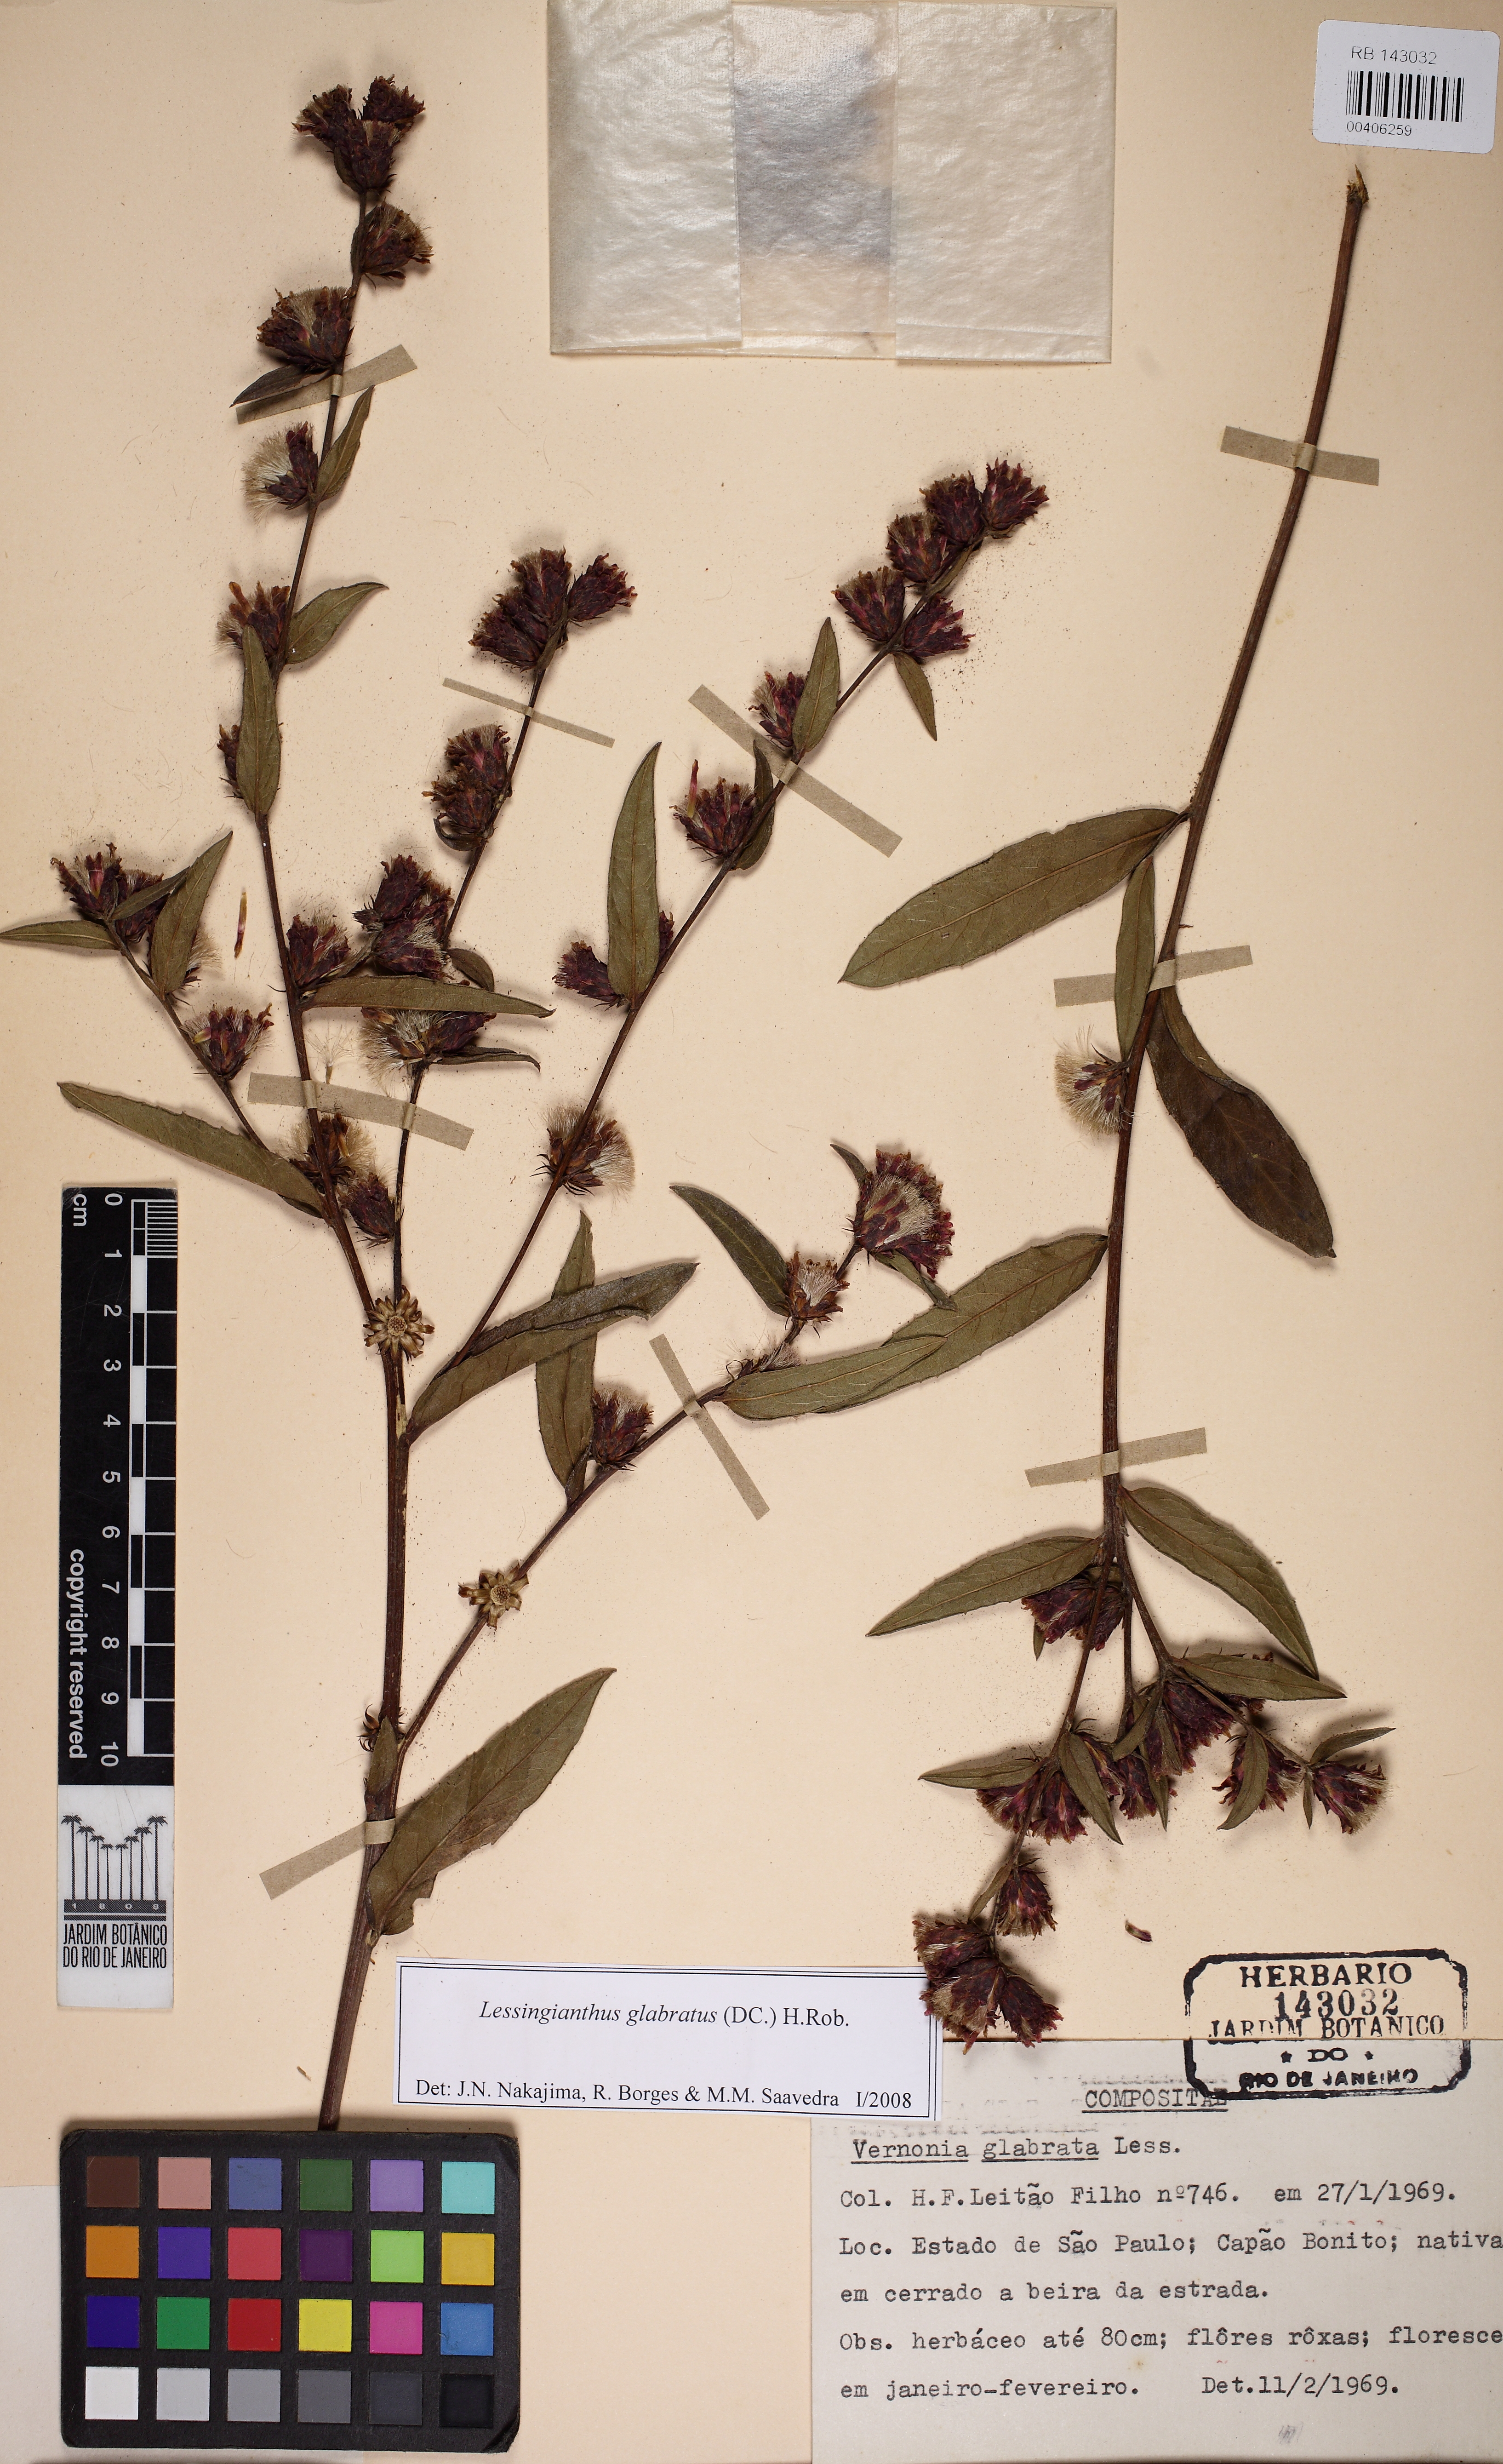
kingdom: Plantae
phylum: Tracheophyta
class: Magnoliopsida
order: Asterales
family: Asteraceae
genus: Lessingianthus
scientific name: Lessingianthus glabratus
